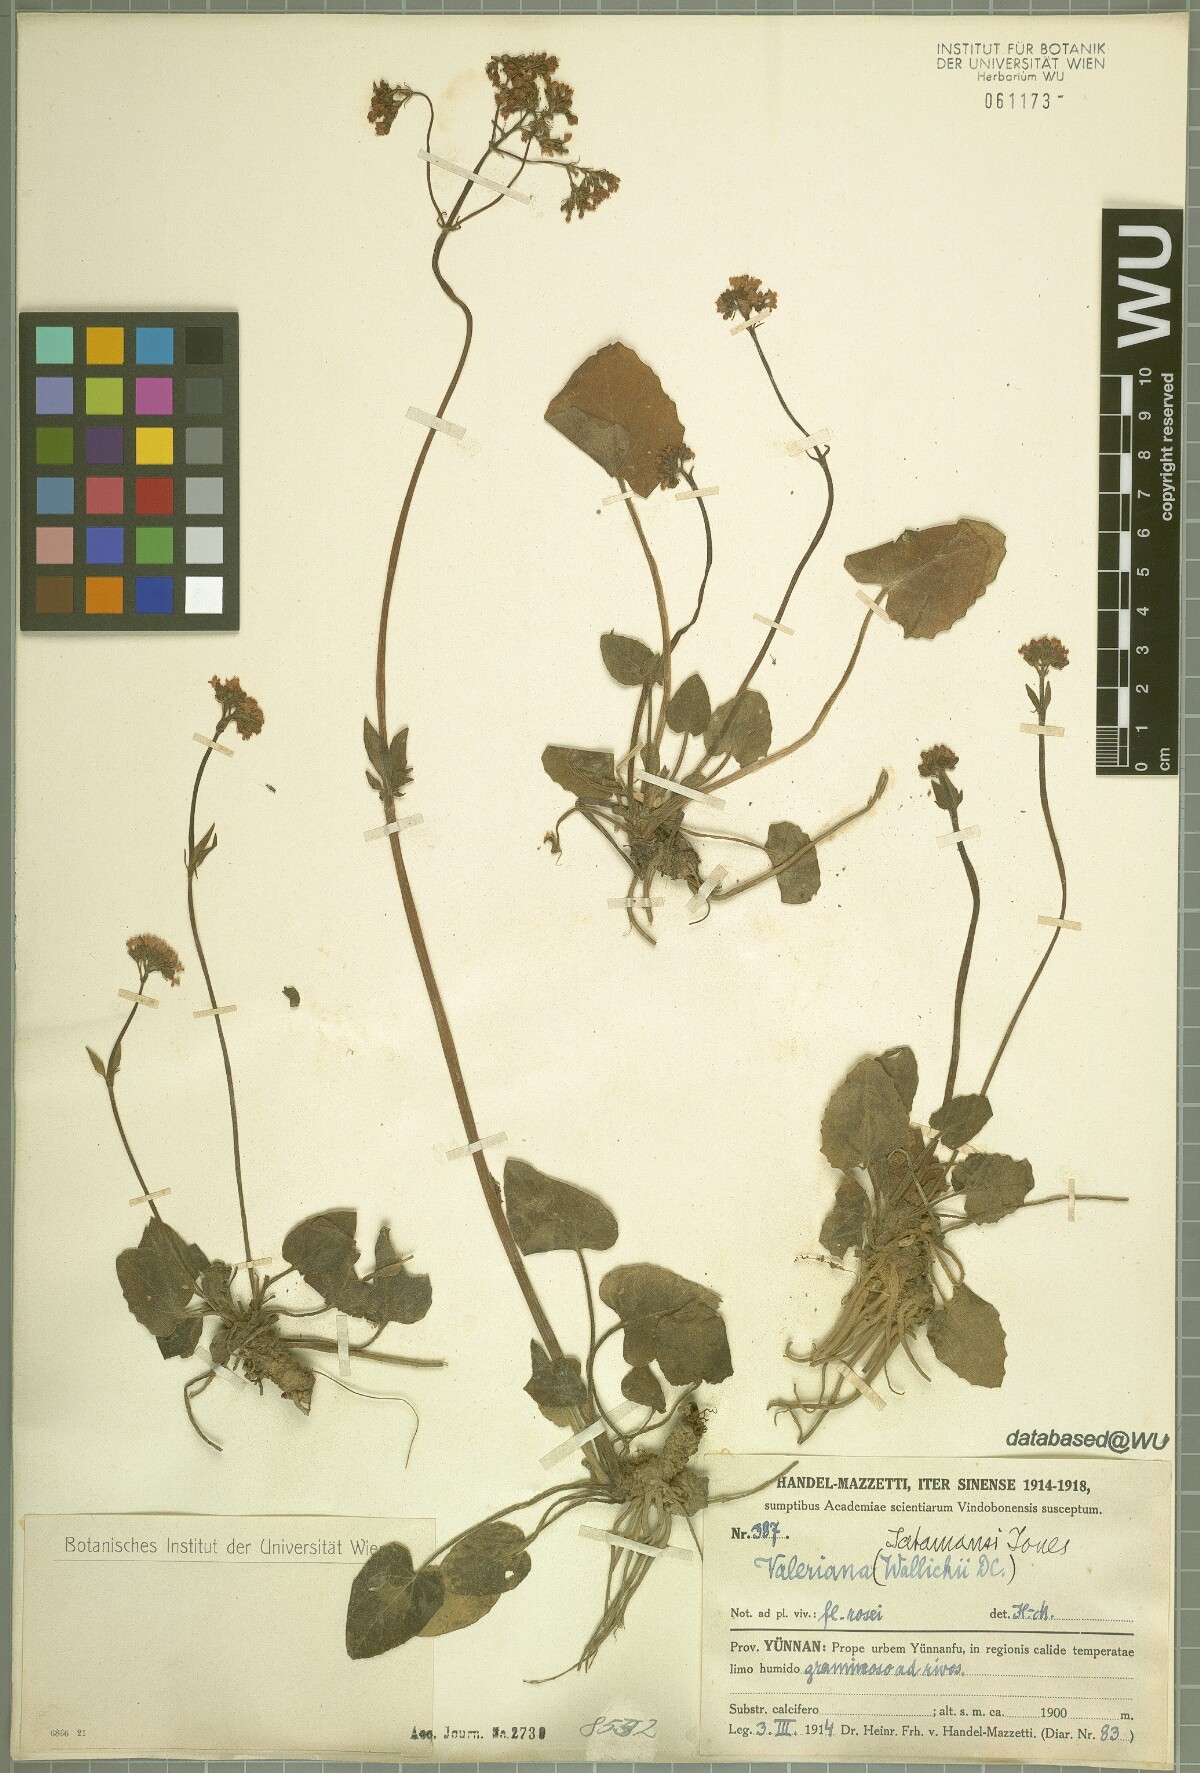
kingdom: Plantae
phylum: Tracheophyta
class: Magnoliopsida
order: Dipsacales
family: Caprifoliaceae
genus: Valeriana
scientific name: Valeriana jatamansi
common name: Indian valerian
